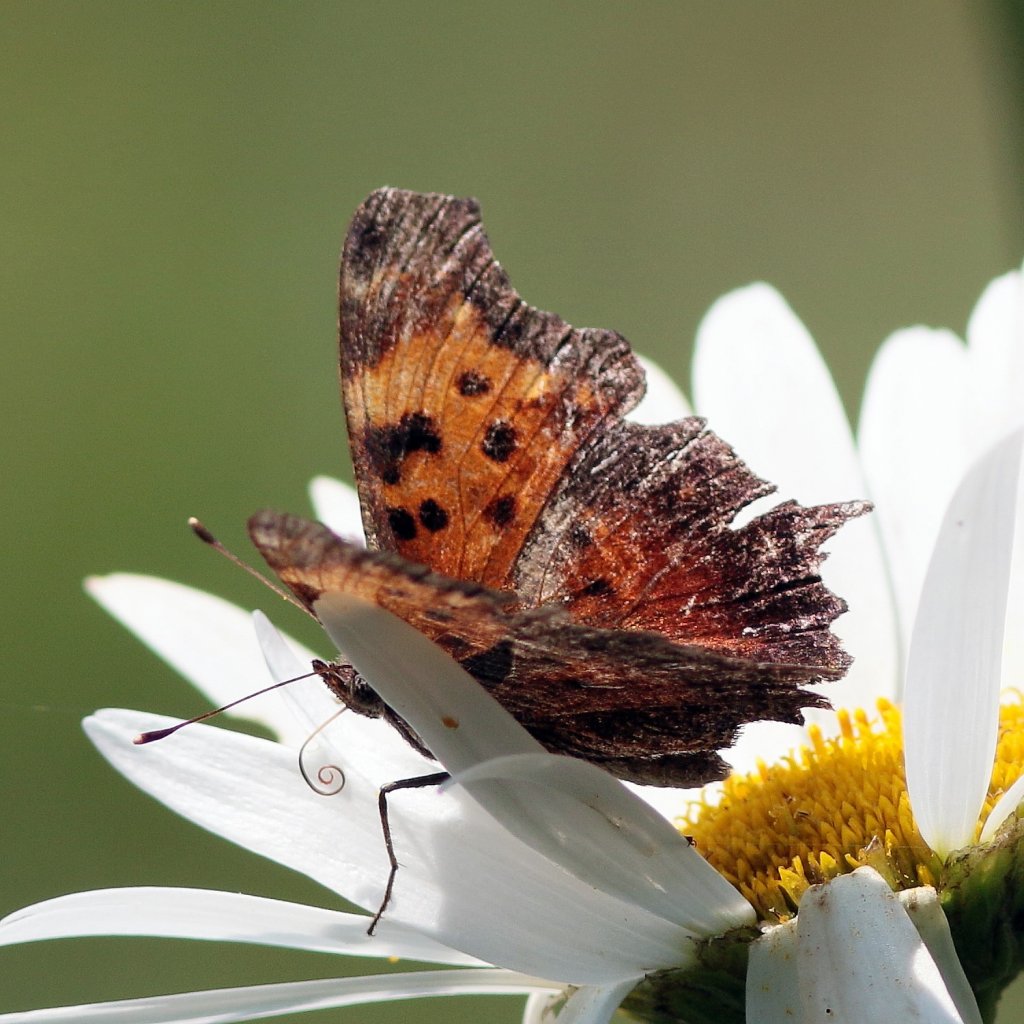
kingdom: Animalia
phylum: Arthropoda
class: Insecta
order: Lepidoptera
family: Nymphalidae
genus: Polygonia
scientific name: Polygonia progne
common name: Gray Comma
